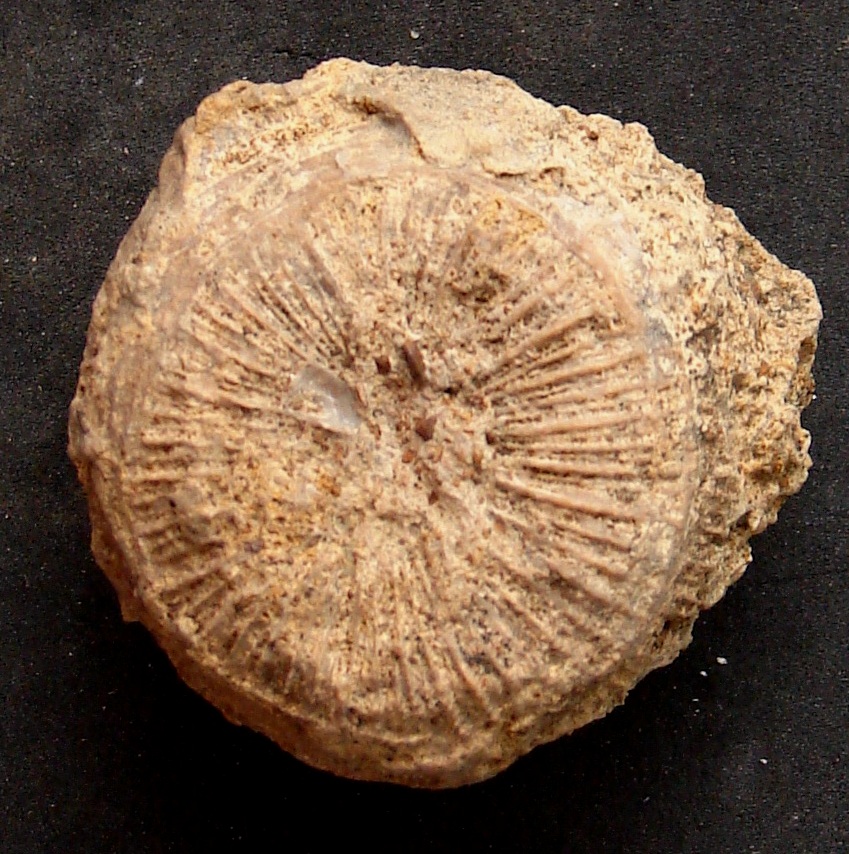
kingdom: Animalia
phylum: Cnidaria
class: Anthozoa
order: Scleractinia
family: Thecosmiliidae
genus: Montlivaltia
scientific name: Montlivaltia
